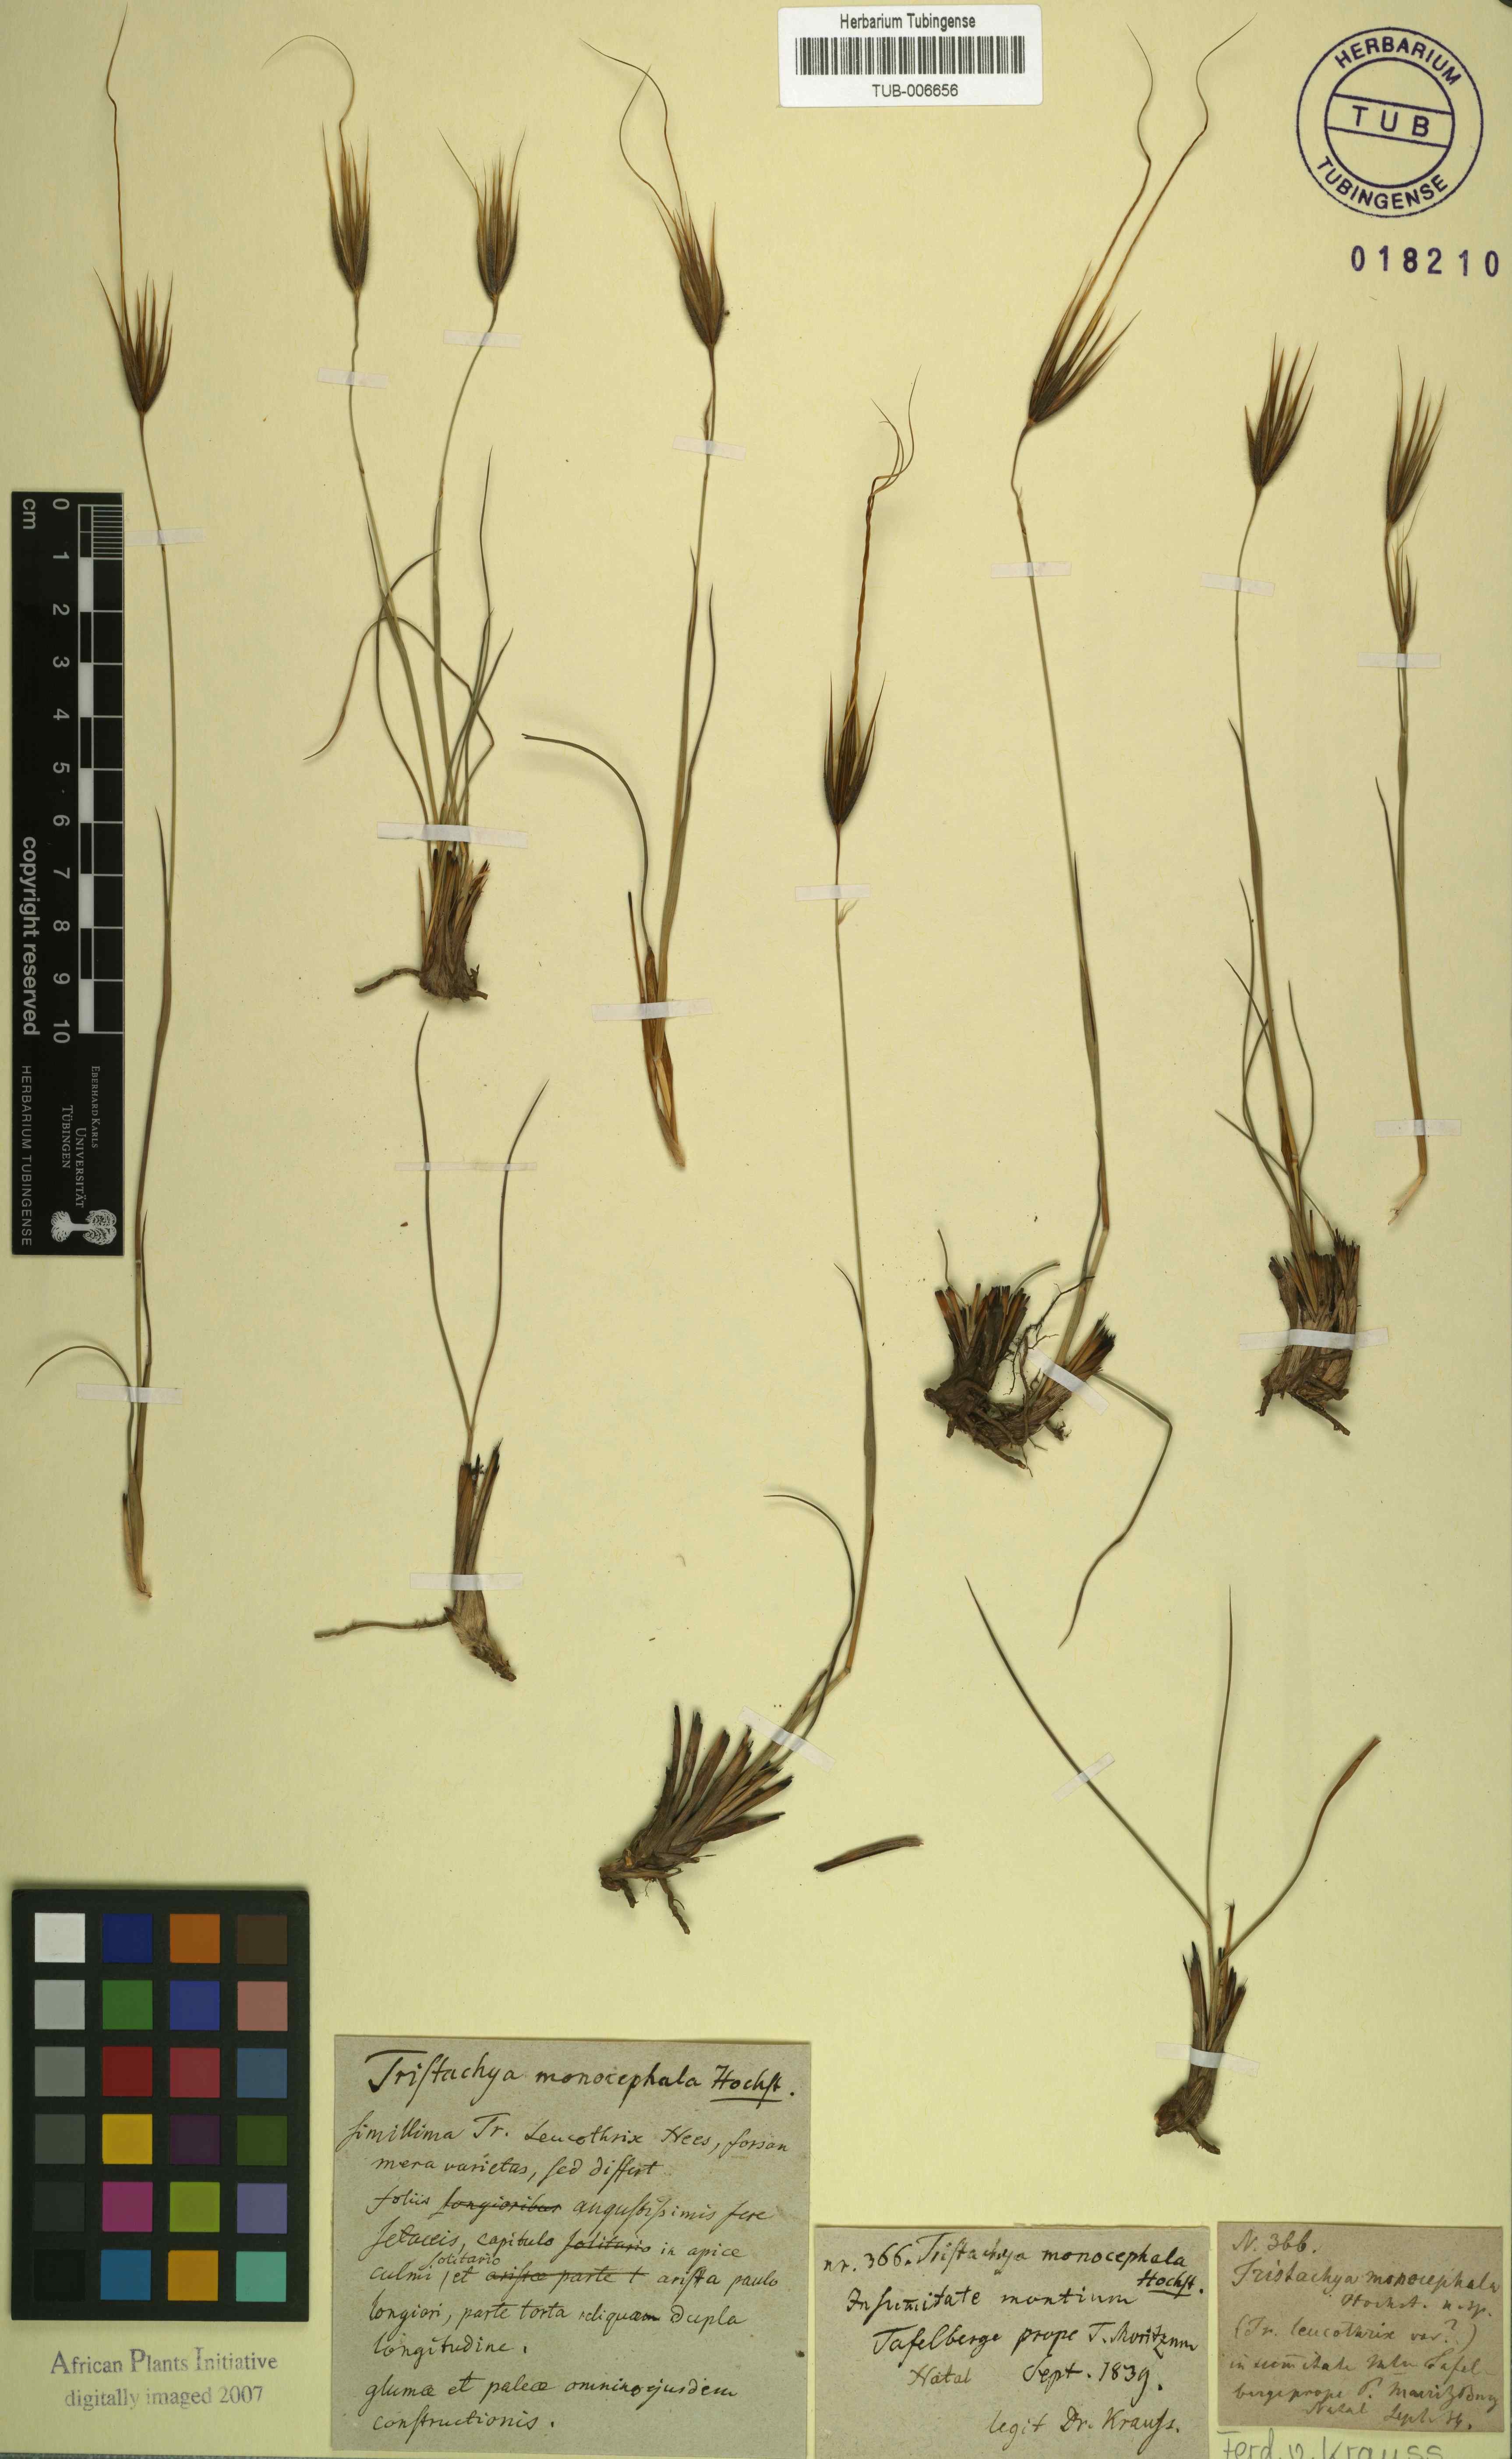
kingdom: Plantae
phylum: Tracheophyta
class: Liliopsida
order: Poales
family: Poaceae
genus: Tristachya
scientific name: Tristachya leucothrix
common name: Trident grass
